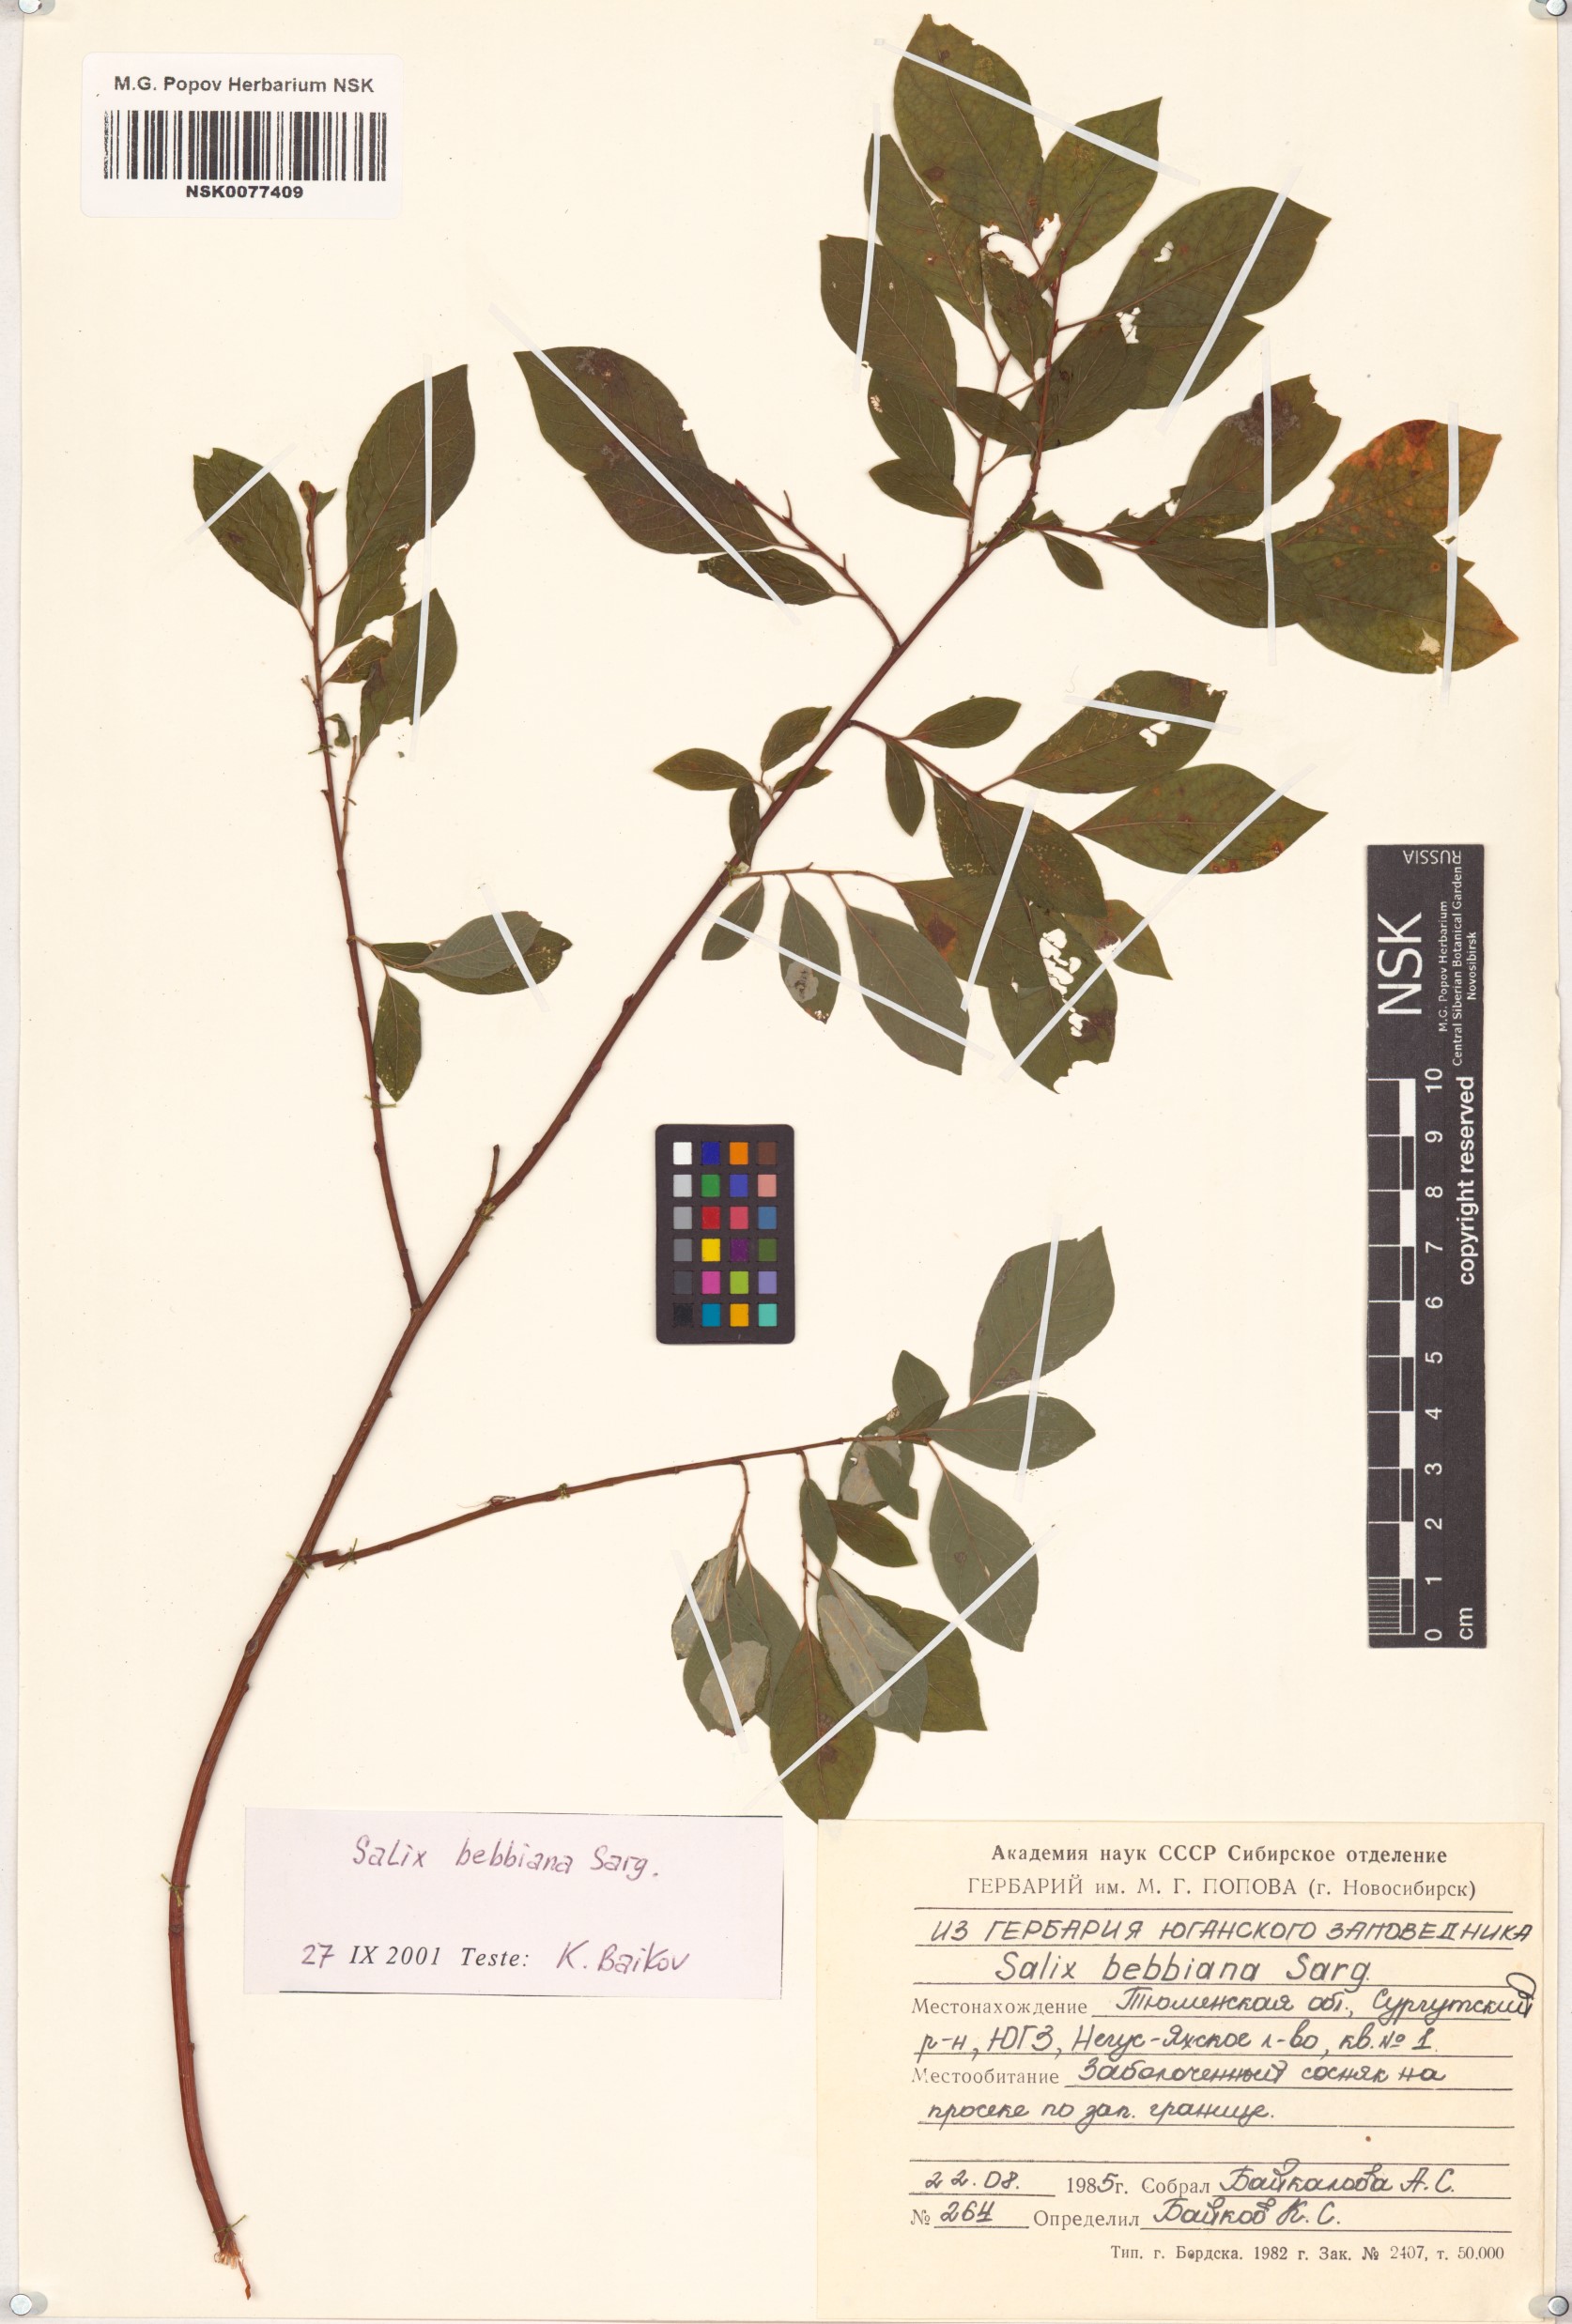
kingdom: Plantae
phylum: Tracheophyta
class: Magnoliopsida
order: Malpighiales
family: Salicaceae
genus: Salix
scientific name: Salix bebbiana
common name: Bebb's willow
